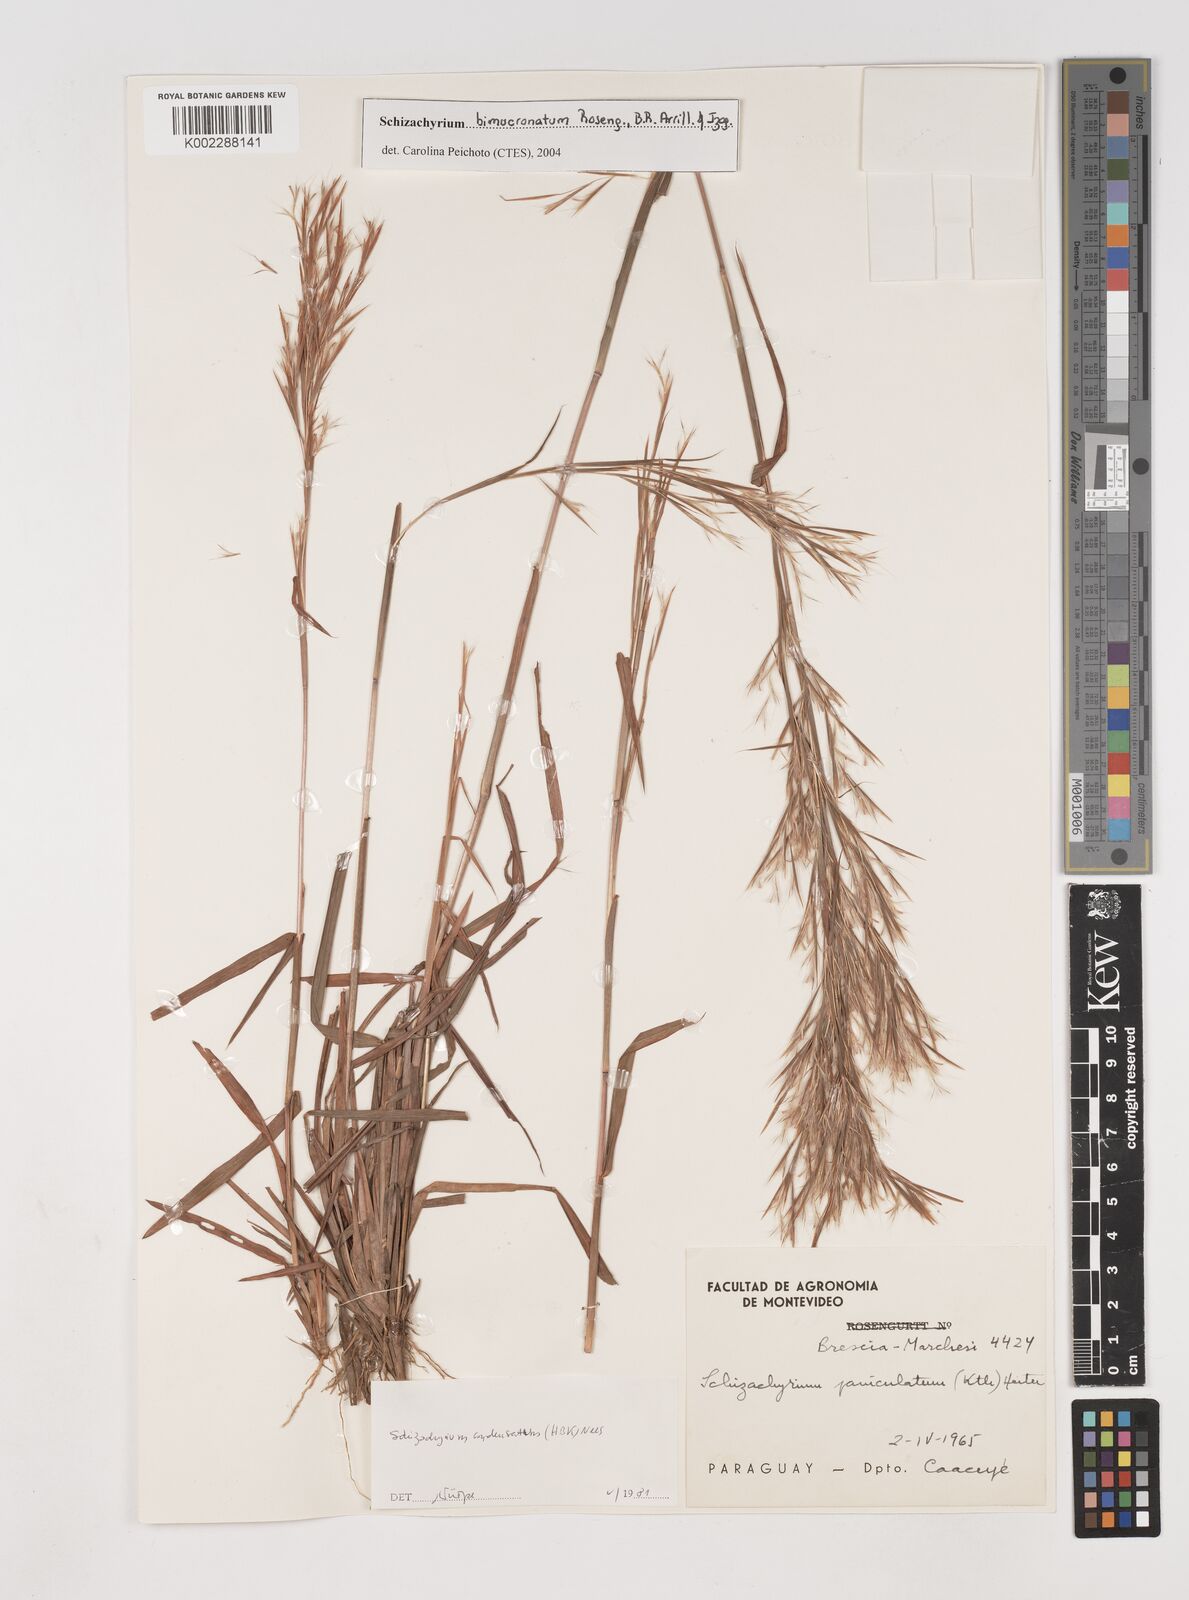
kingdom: Plantae
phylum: Tracheophyta
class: Liliopsida
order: Poales
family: Poaceae
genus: Schizachyrium
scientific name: Schizachyrium microstachyum
